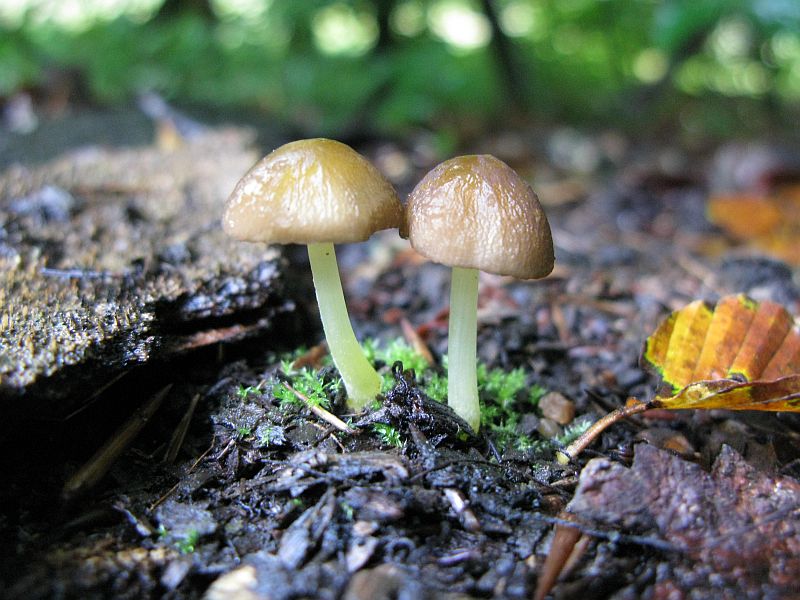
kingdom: Fungi
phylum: Basidiomycota
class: Agaricomycetes
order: Agaricales
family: Pluteaceae
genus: Pluteus
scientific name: Pluteus romellii
